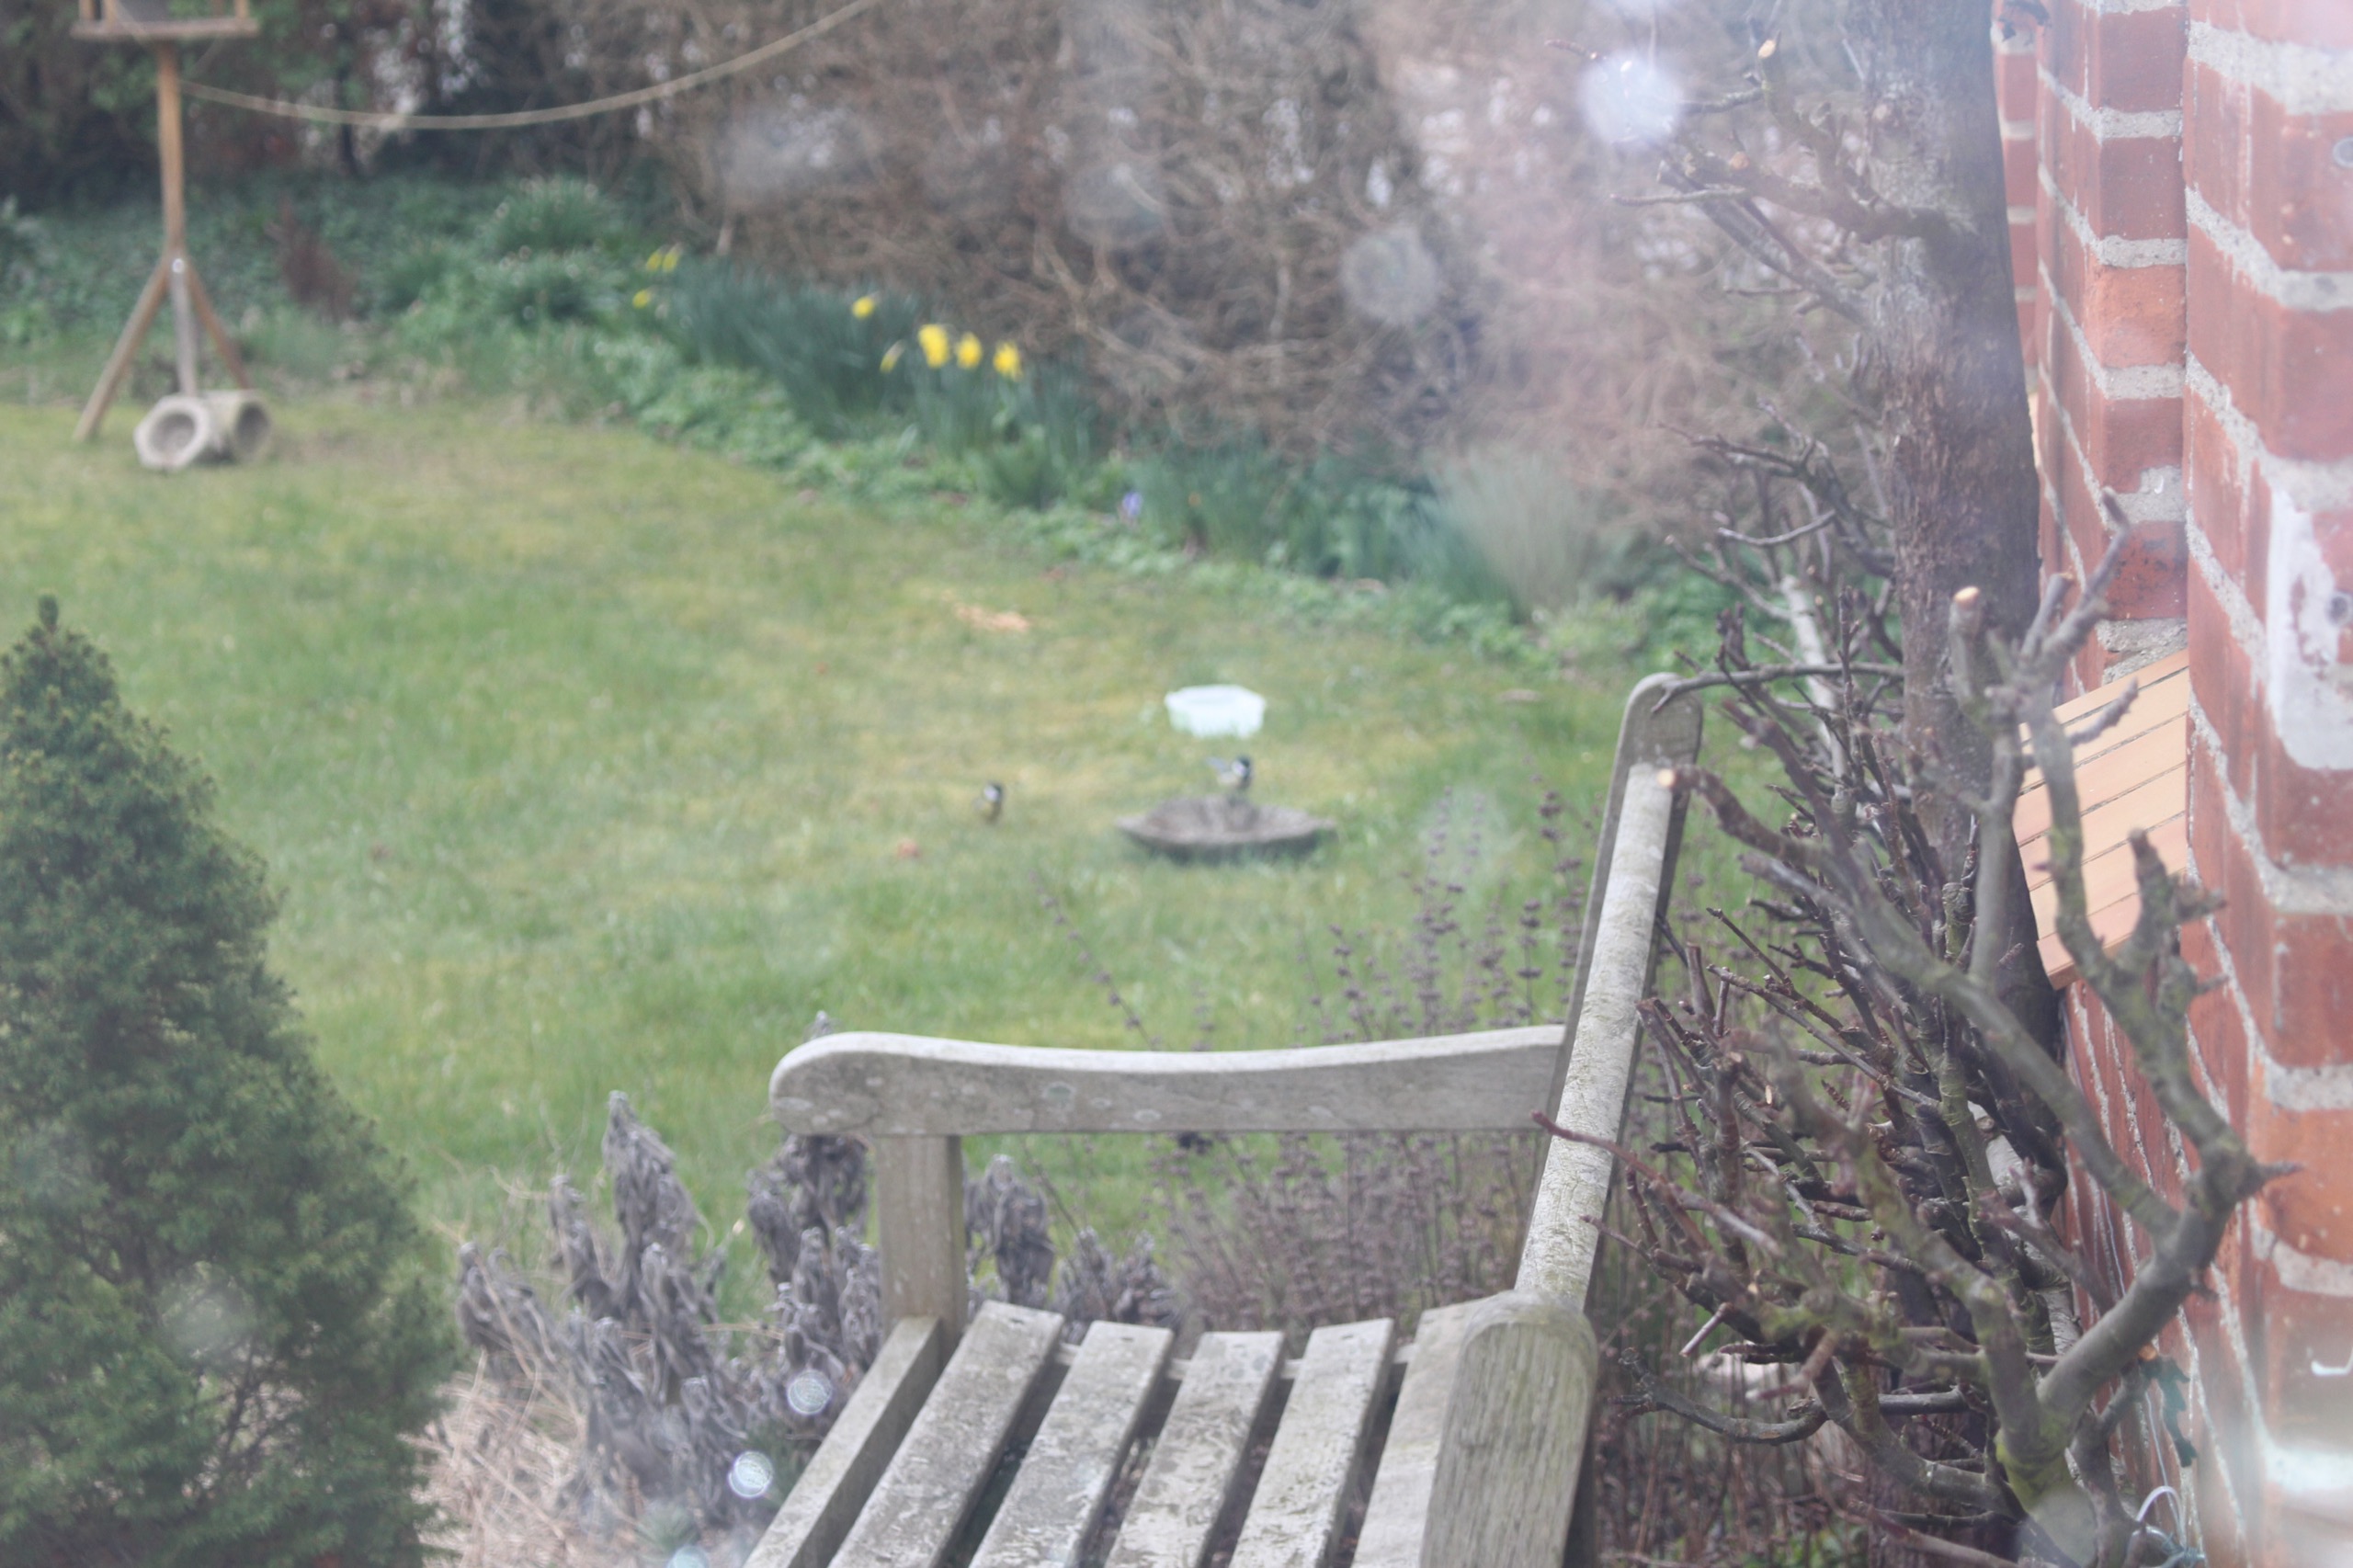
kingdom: Animalia
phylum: Chordata
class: Aves
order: Passeriformes
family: Paridae
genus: Parus
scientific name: Parus major
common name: Musvit
